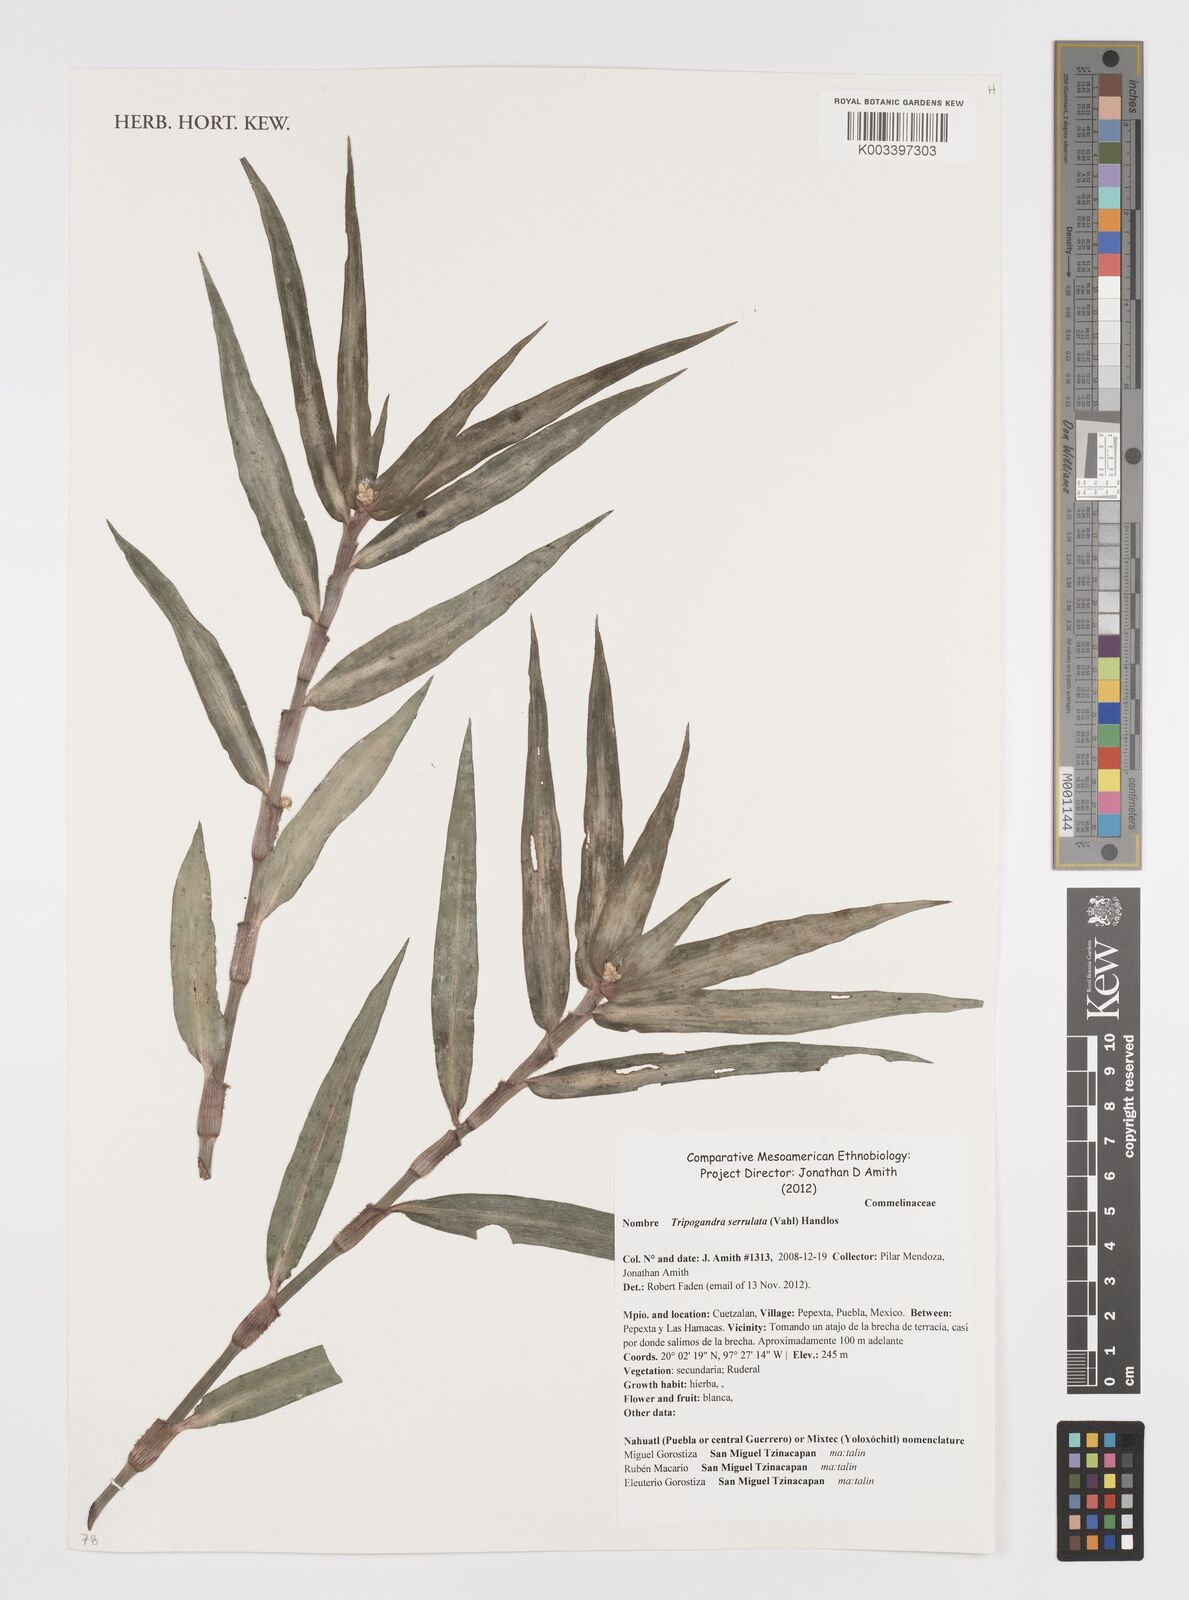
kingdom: Plantae
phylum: Tracheophyta
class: Liliopsida
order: Commelinales
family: Commelinaceae
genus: Callisia
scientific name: Callisia serrulata
